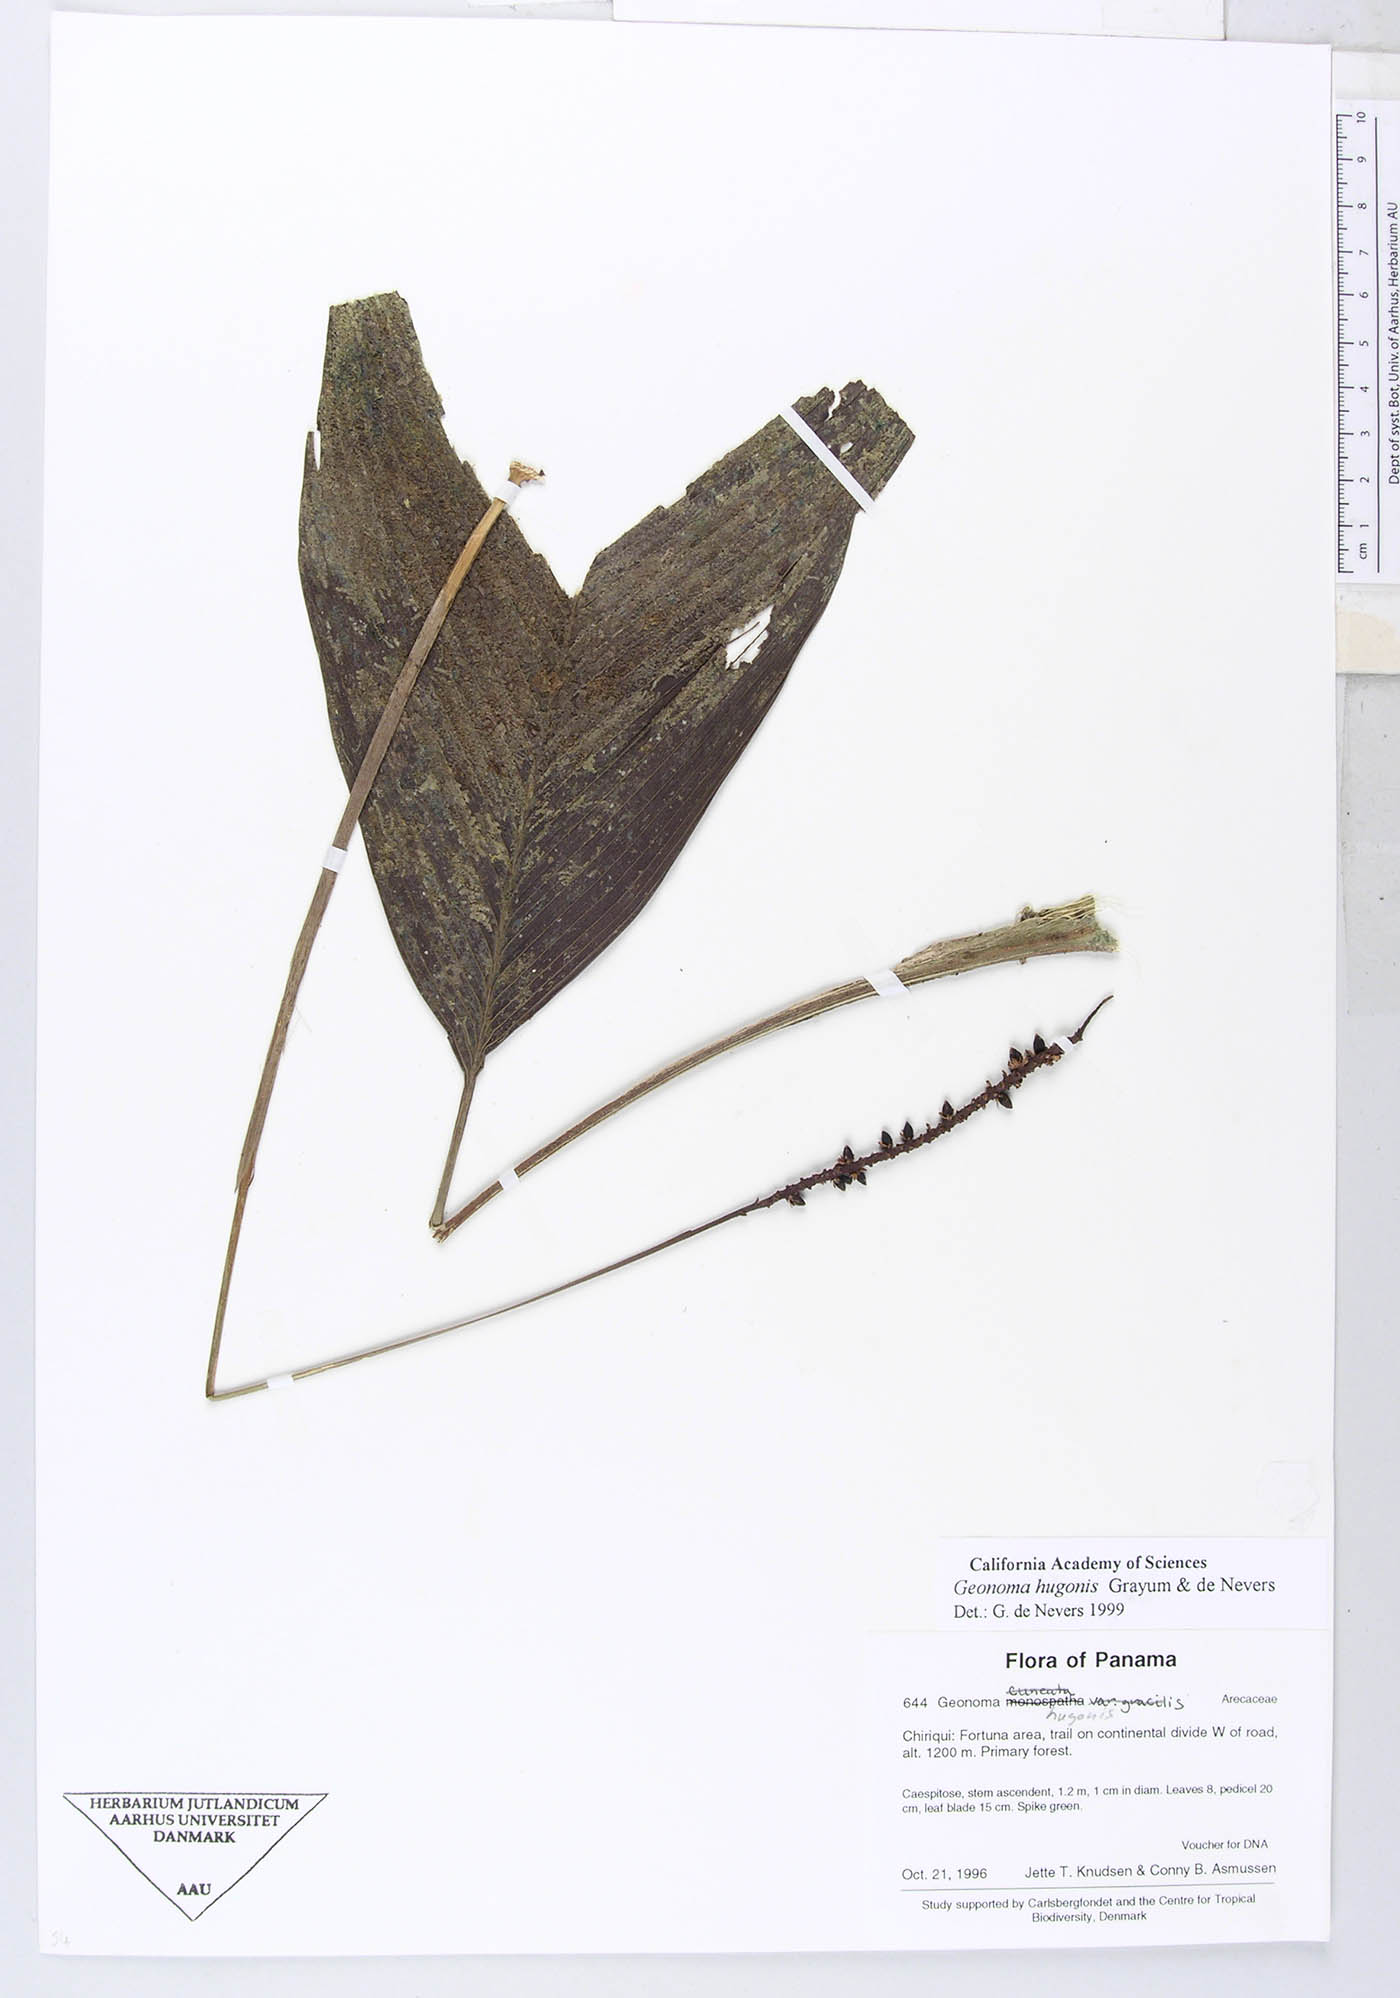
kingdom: Plantae
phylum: Tracheophyta
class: Liliopsida
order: Arecales
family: Arecaceae
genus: Geonoma
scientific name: Geonoma hugonis
